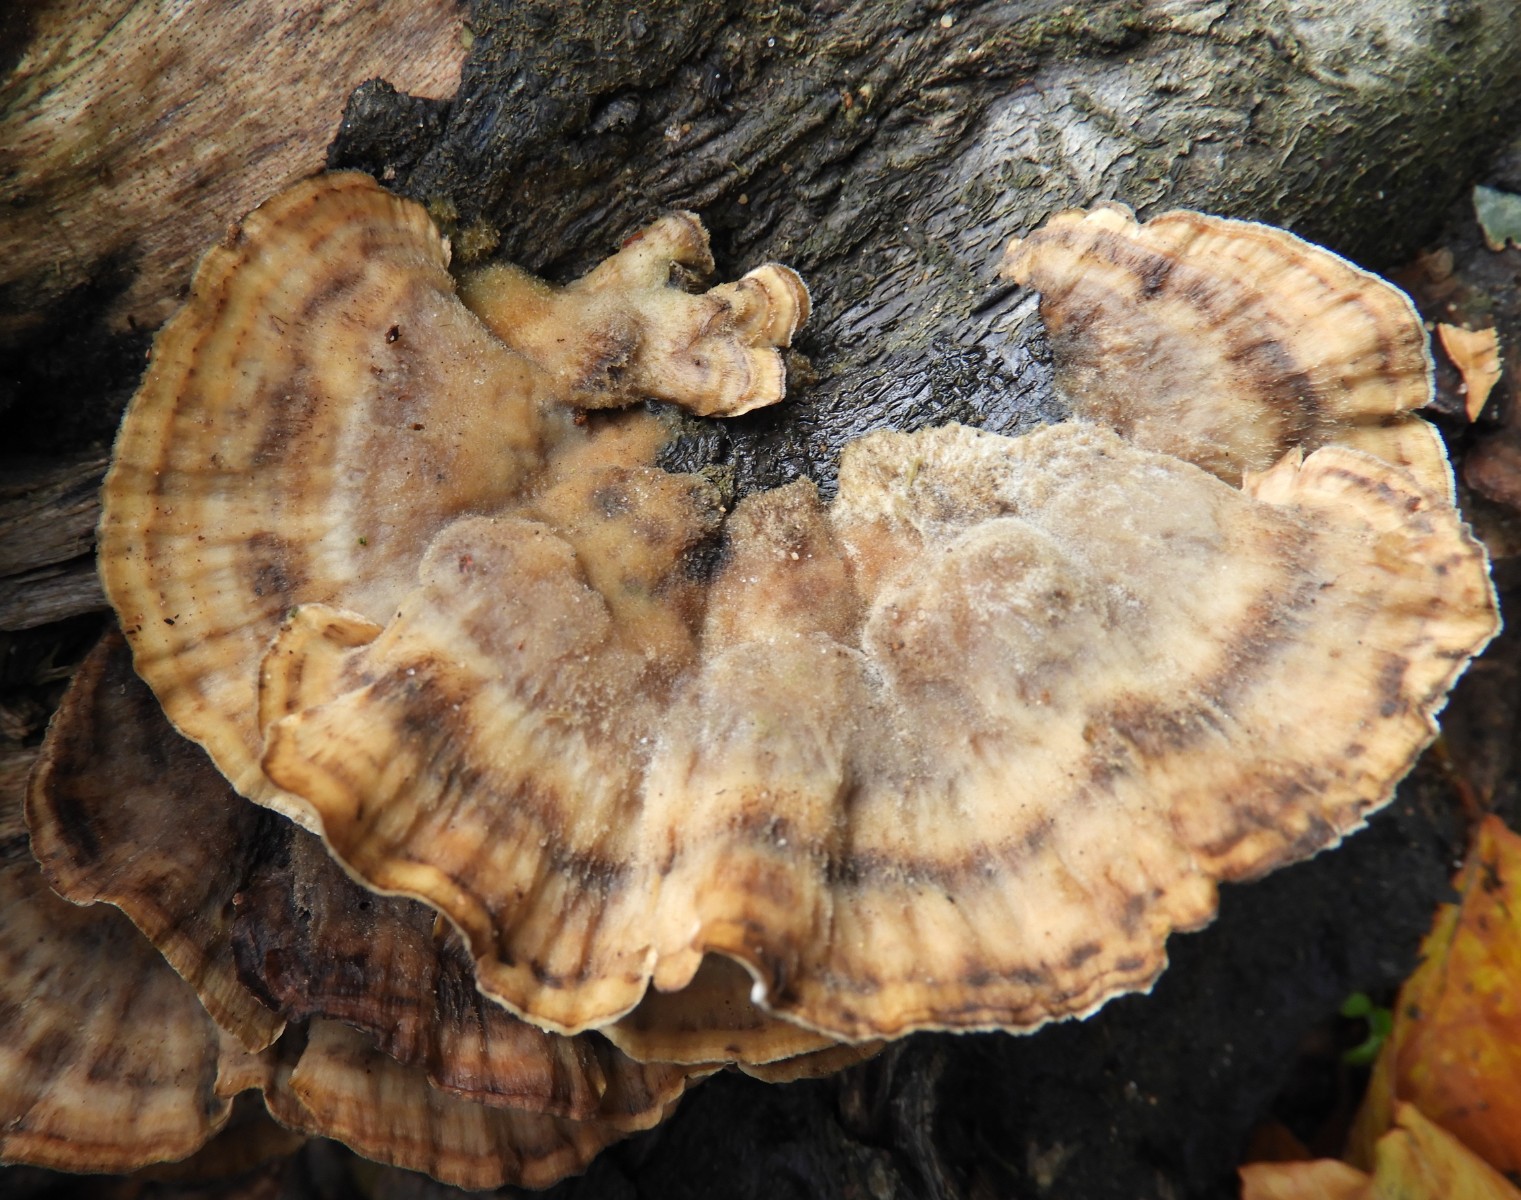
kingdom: Fungi
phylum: Basidiomycota
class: Agaricomycetes
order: Polyporales
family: Phanerochaetaceae
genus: Bjerkandera
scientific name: Bjerkandera adusta
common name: sveden sodporesvamp
